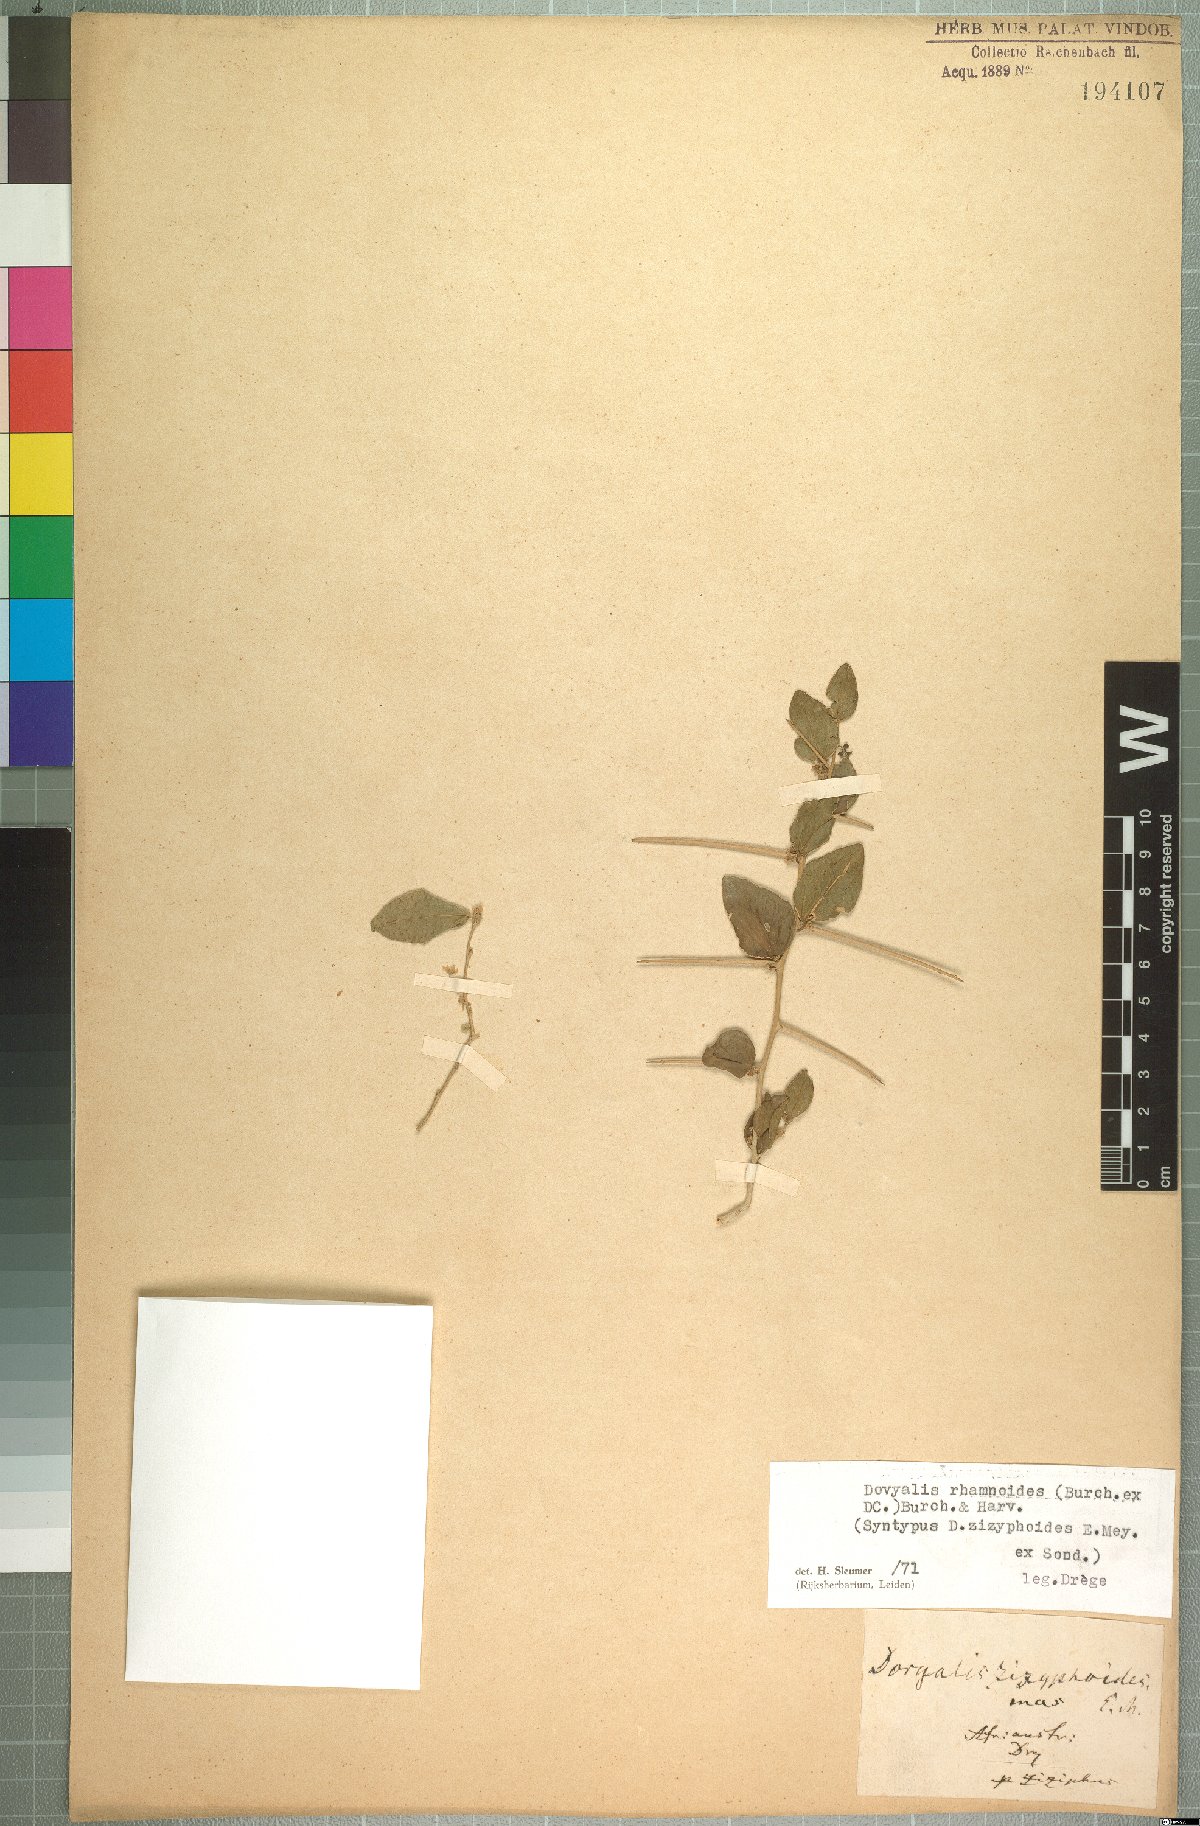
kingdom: Plantae
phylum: Tracheophyta
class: Magnoliopsida
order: Malpighiales
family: Salicaceae
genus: Dovyalis
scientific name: Dovyalis rhamnoides
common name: Sourberry
